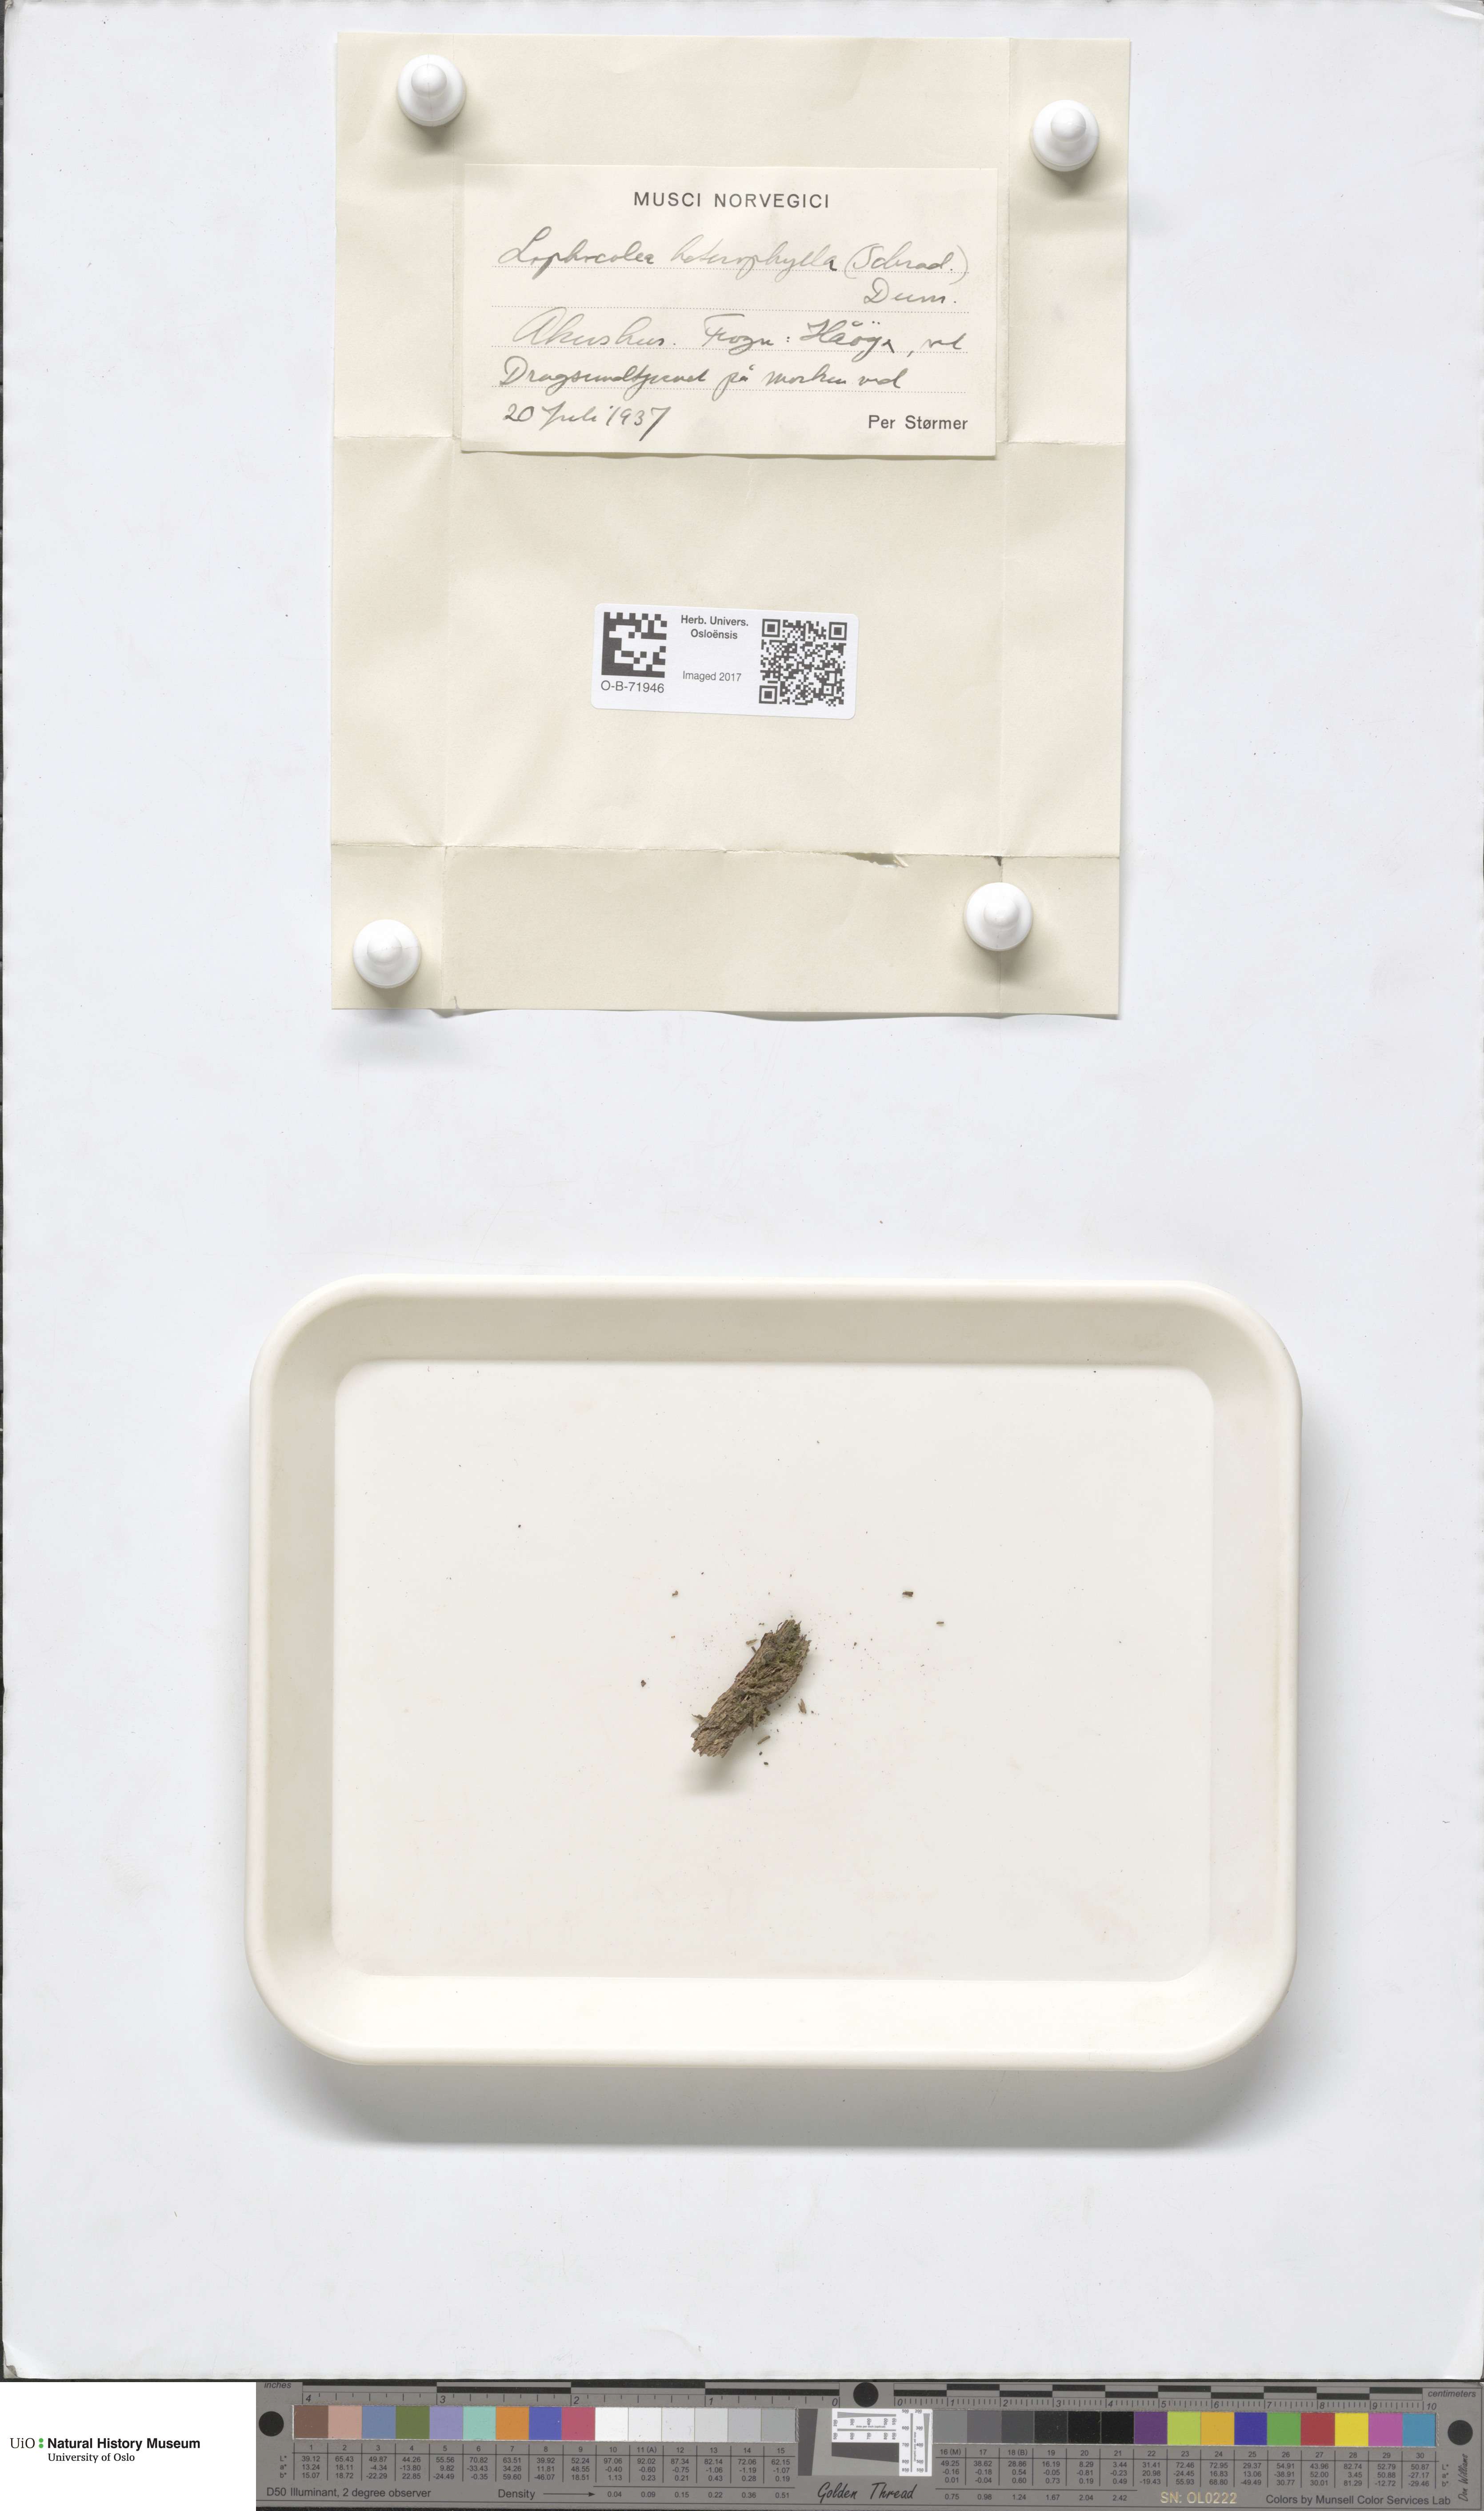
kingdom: Plantae
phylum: Marchantiophyta
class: Jungermanniopsida
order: Jungermanniales
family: Lophocoleaceae
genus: Lophocolea
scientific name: Lophocolea heterophylla
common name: Variable-leaved crestwort
